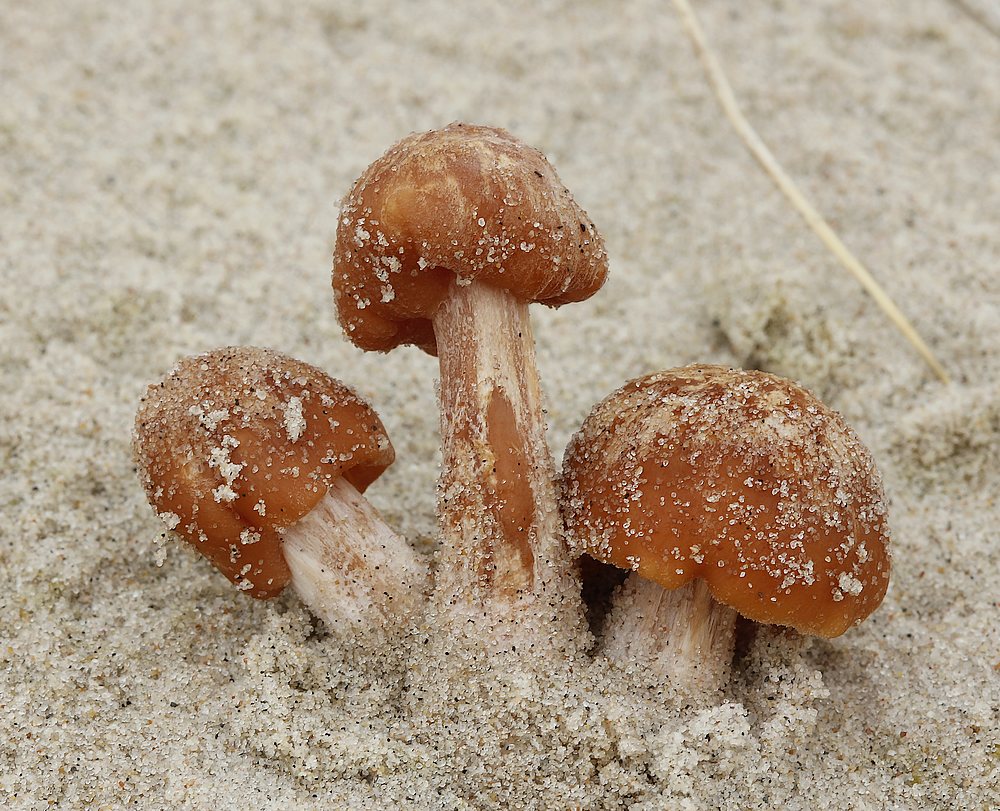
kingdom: Fungi
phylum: Basidiomycota
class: Agaricomycetes
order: Agaricales
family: Hydnangiaceae
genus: Laccaria
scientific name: Laccaria maritima
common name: klit-ametysthat
